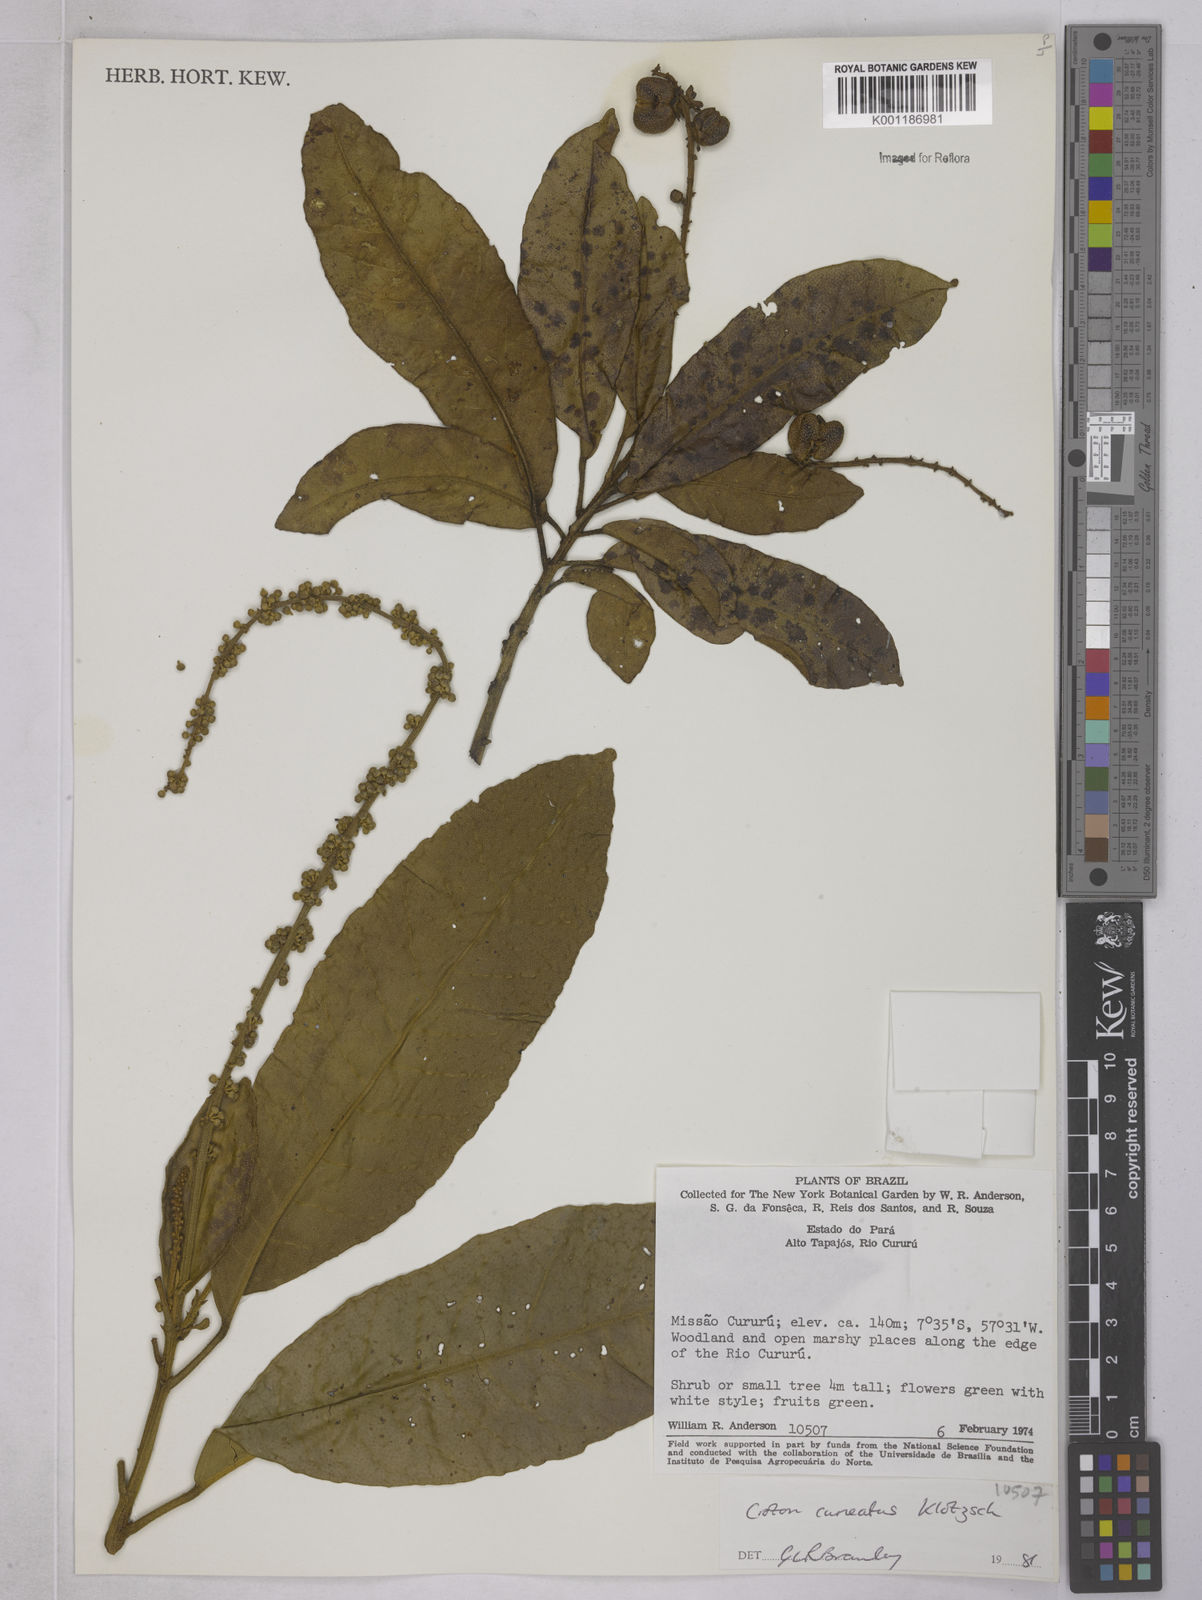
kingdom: Plantae
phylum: Tracheophyta
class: Magnoliopsida
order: Malpighiales
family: Euphorbiaceae
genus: Croton
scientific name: Croton
